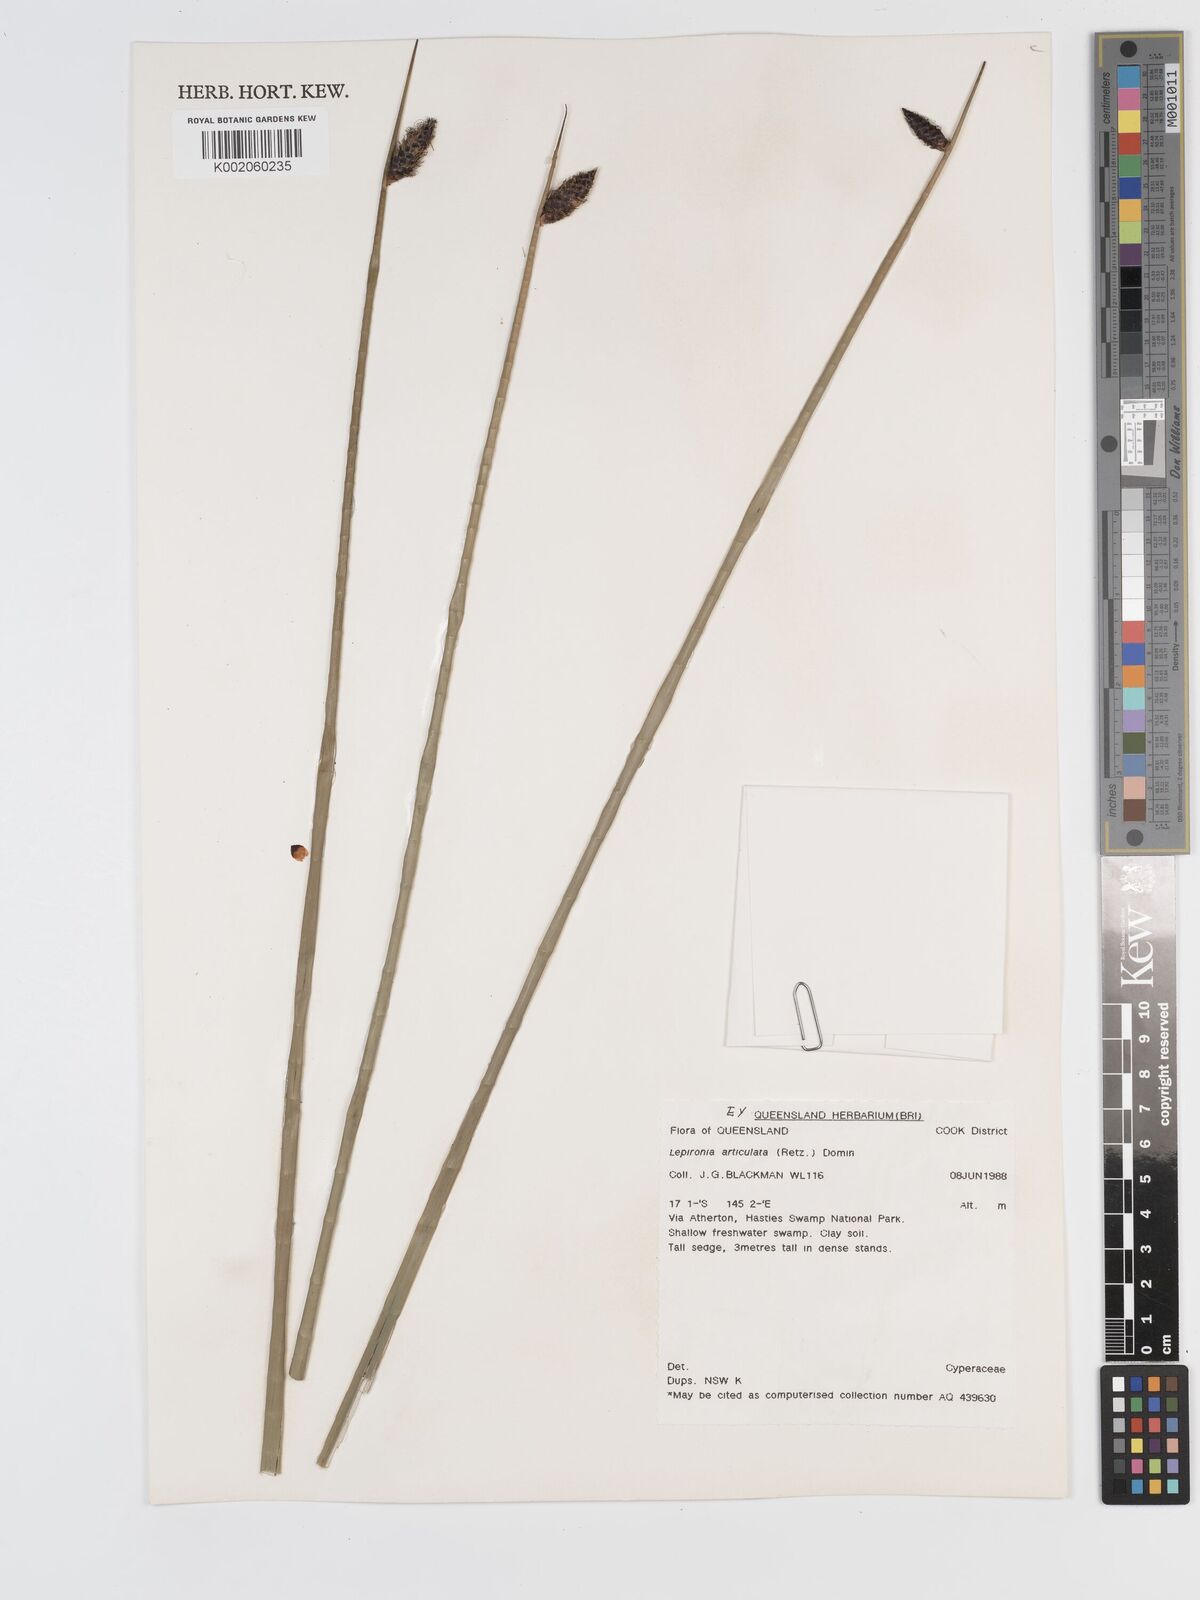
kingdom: Plantae
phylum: Tracheophyta
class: Liliopsida
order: Poales
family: Cyperaceae
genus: Lepironia
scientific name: Lepironia articulata
